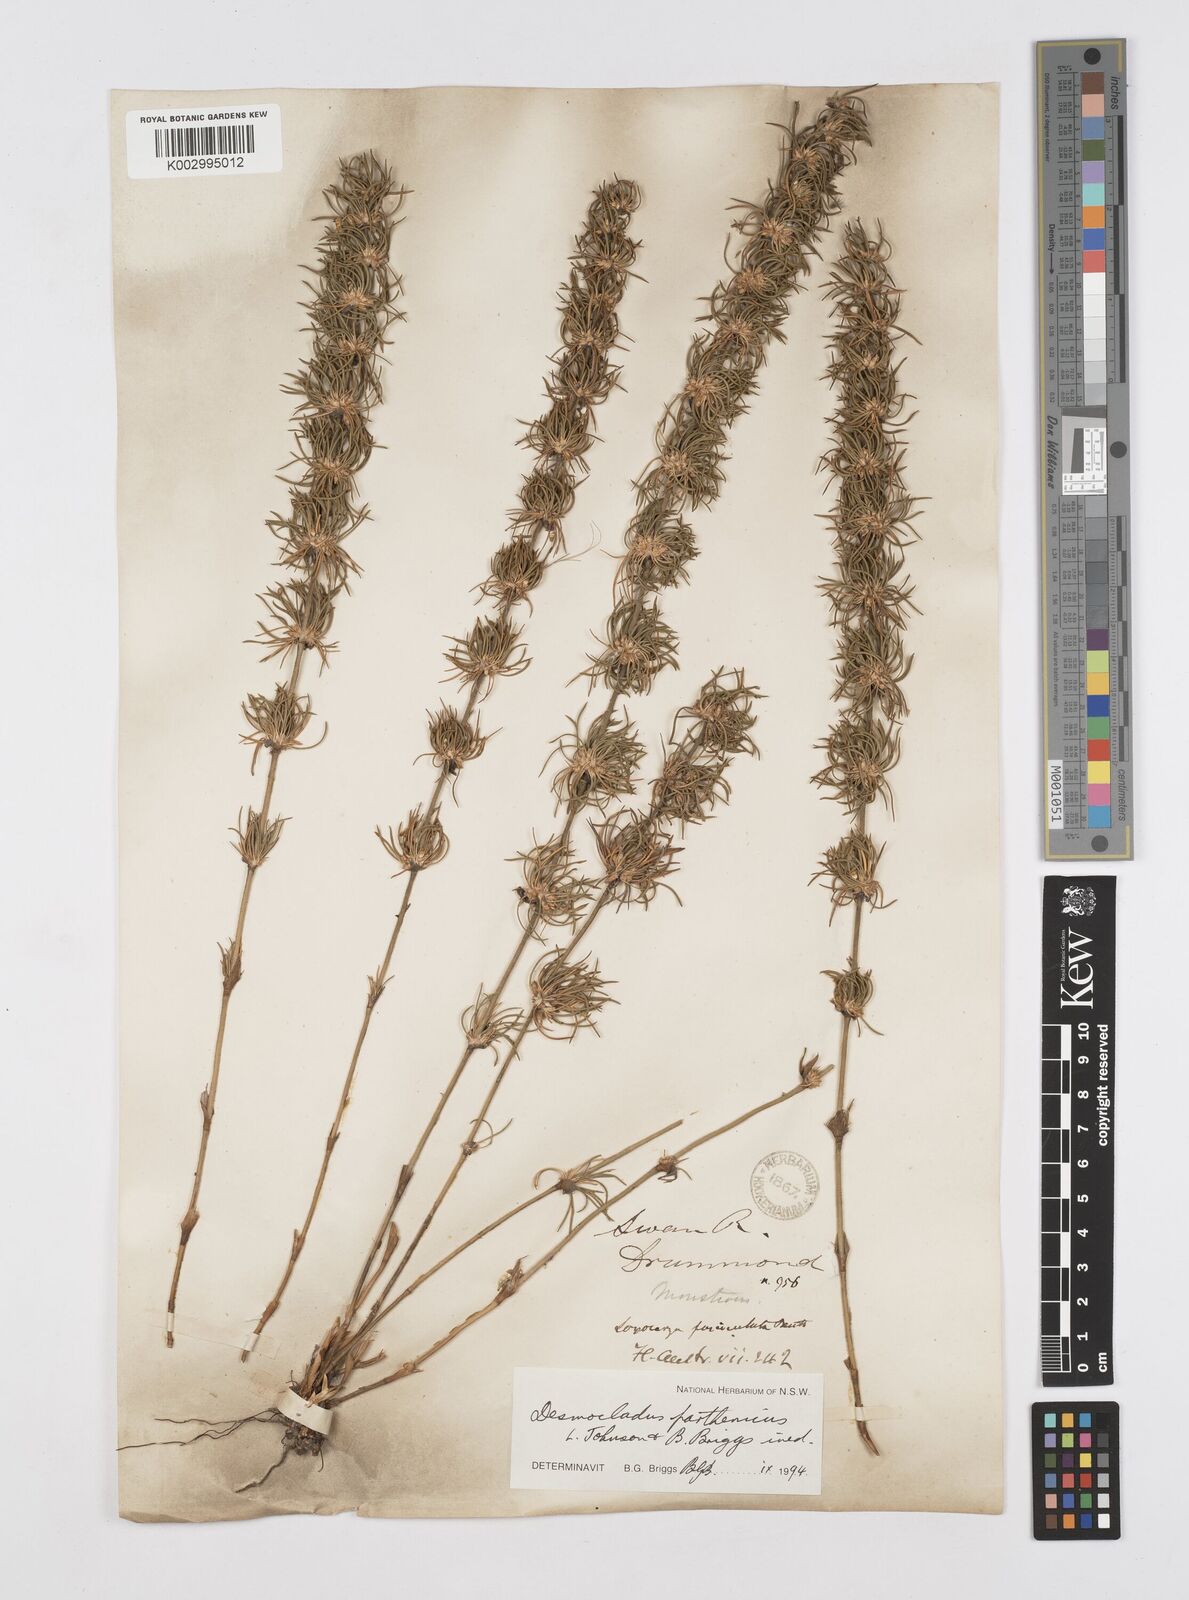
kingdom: Plantae
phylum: Tracheophyta
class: Liliopsida
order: Poales
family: Restionaceae
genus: Desmocladus
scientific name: Desmocladus parthenicus
